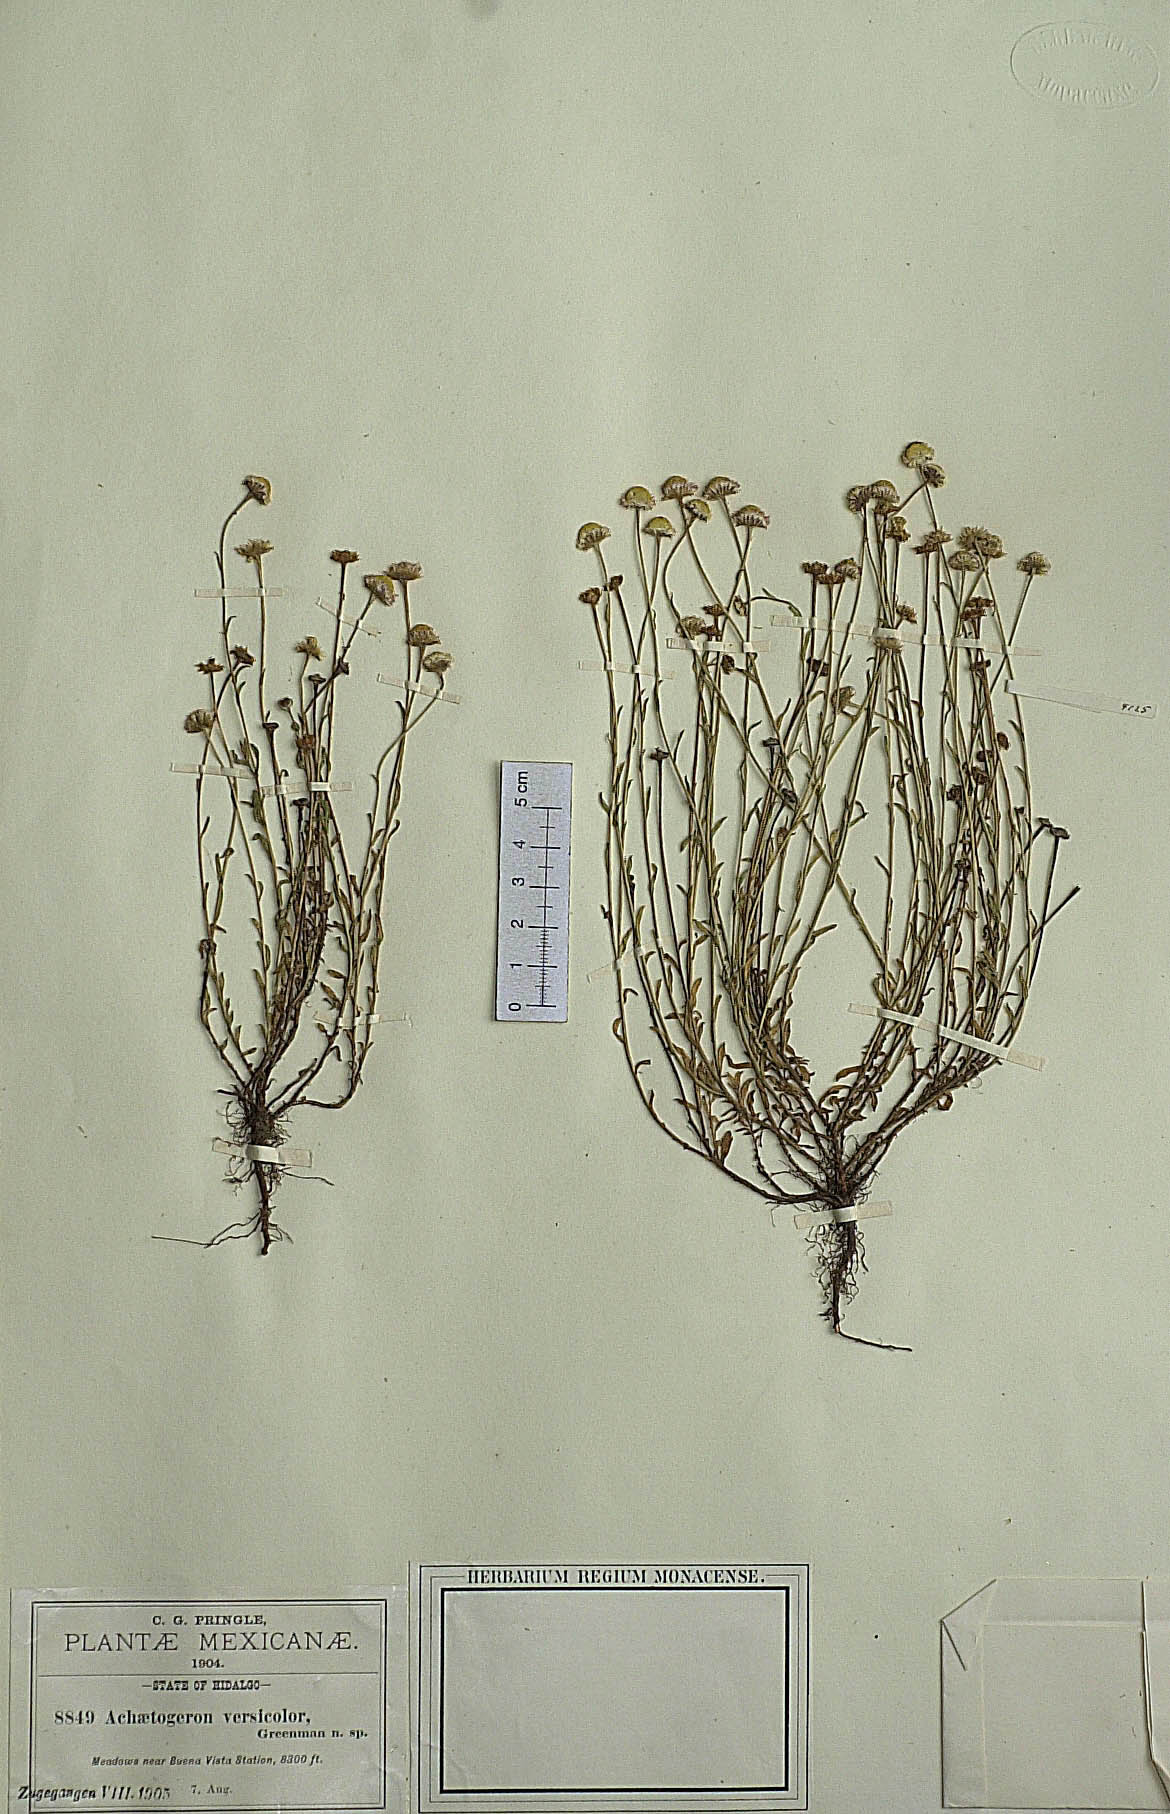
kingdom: Plantae
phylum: Tracheophyta
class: Magnoliopsida
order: Asterales
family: Asteraceae
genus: Archaetogeron
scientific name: Archaetogeron
